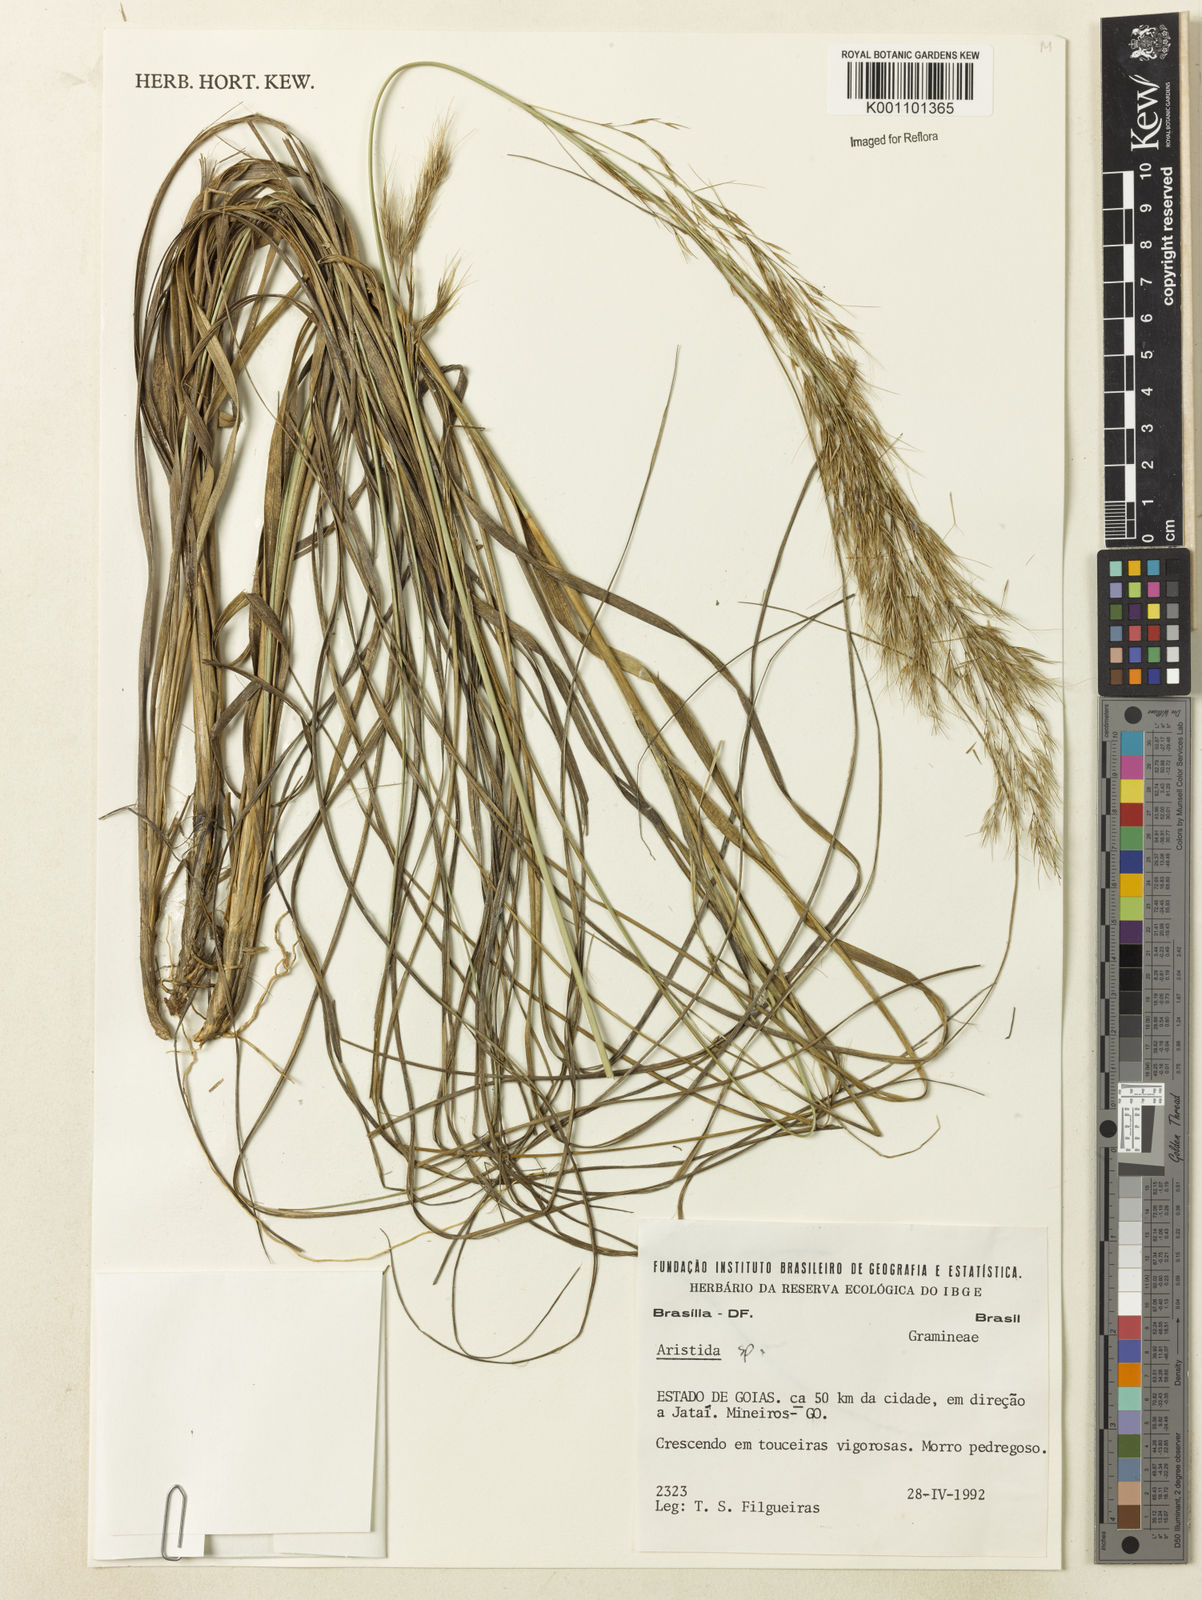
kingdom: Plantae
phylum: Tracheophyta
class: Liliopsida
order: Poales
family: Poaceae
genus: Aristida
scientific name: Aristida
